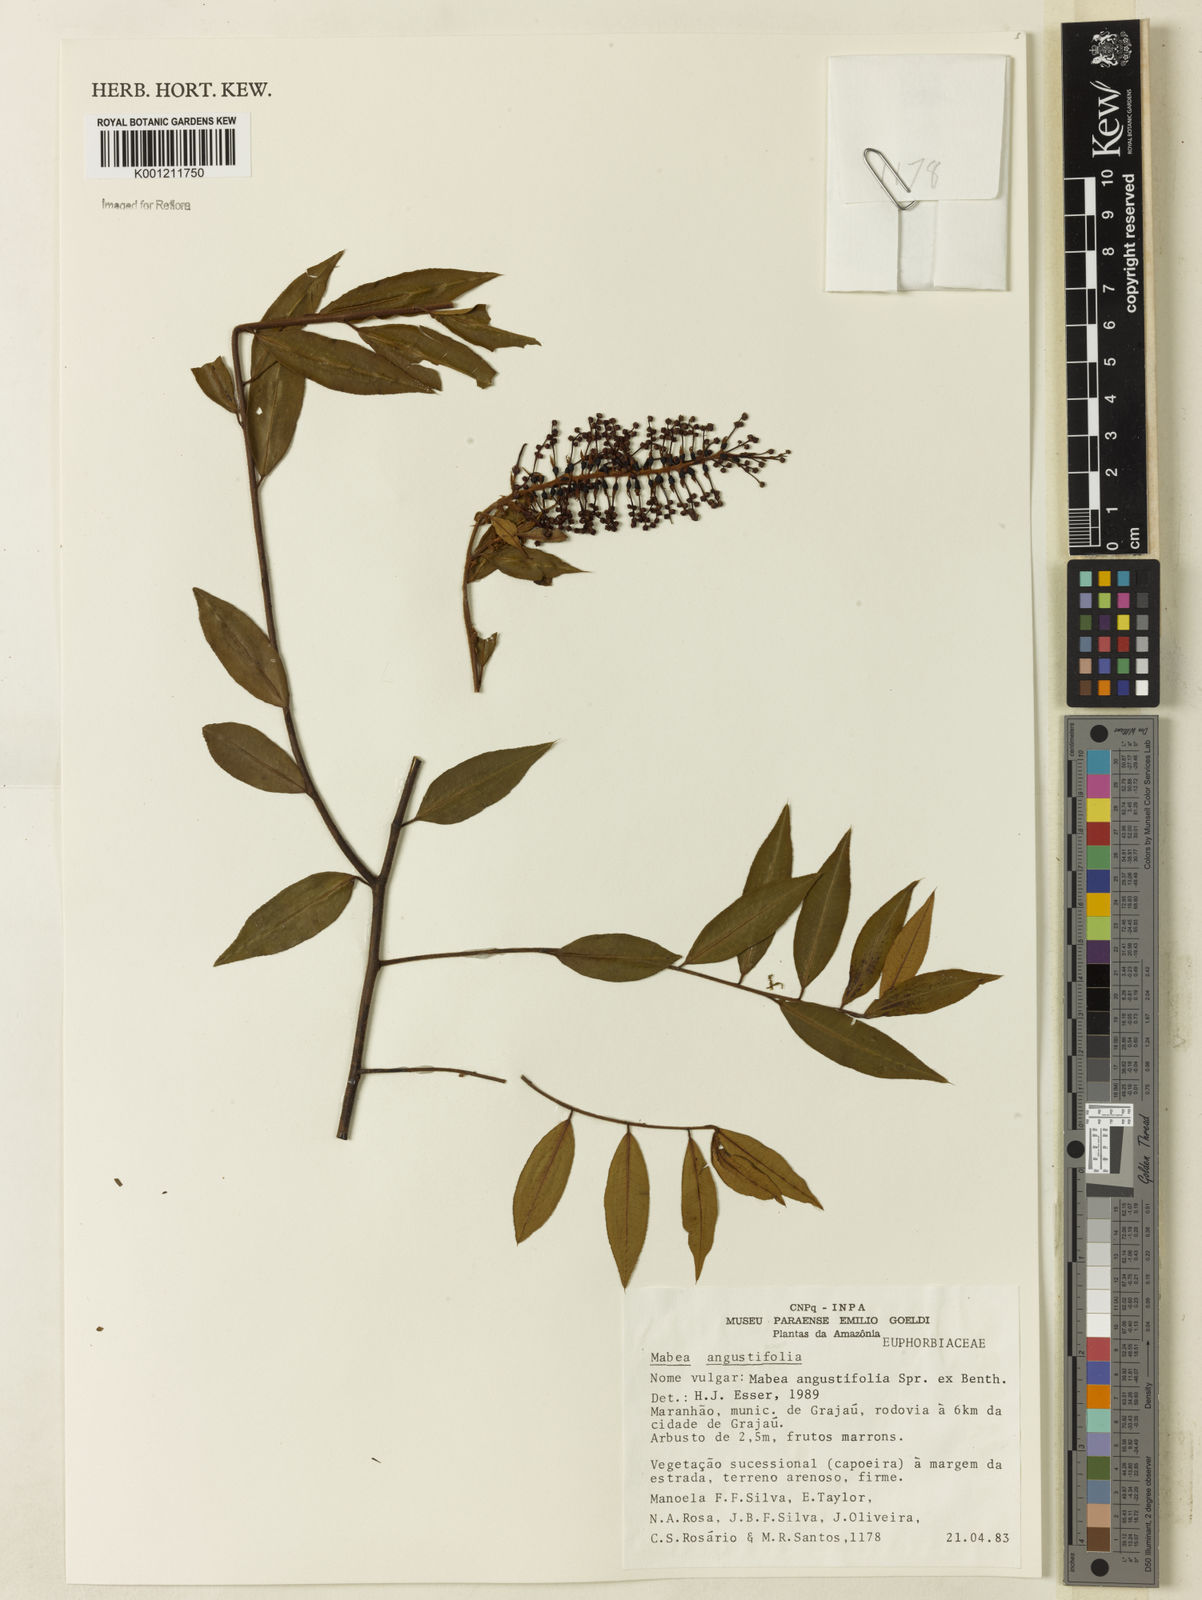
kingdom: Plantae
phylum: Tracheophyta
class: Magnoliopsida
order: Malpighiales
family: Euphorbiaceae
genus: Mabea
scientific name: Mabea angustifolia
